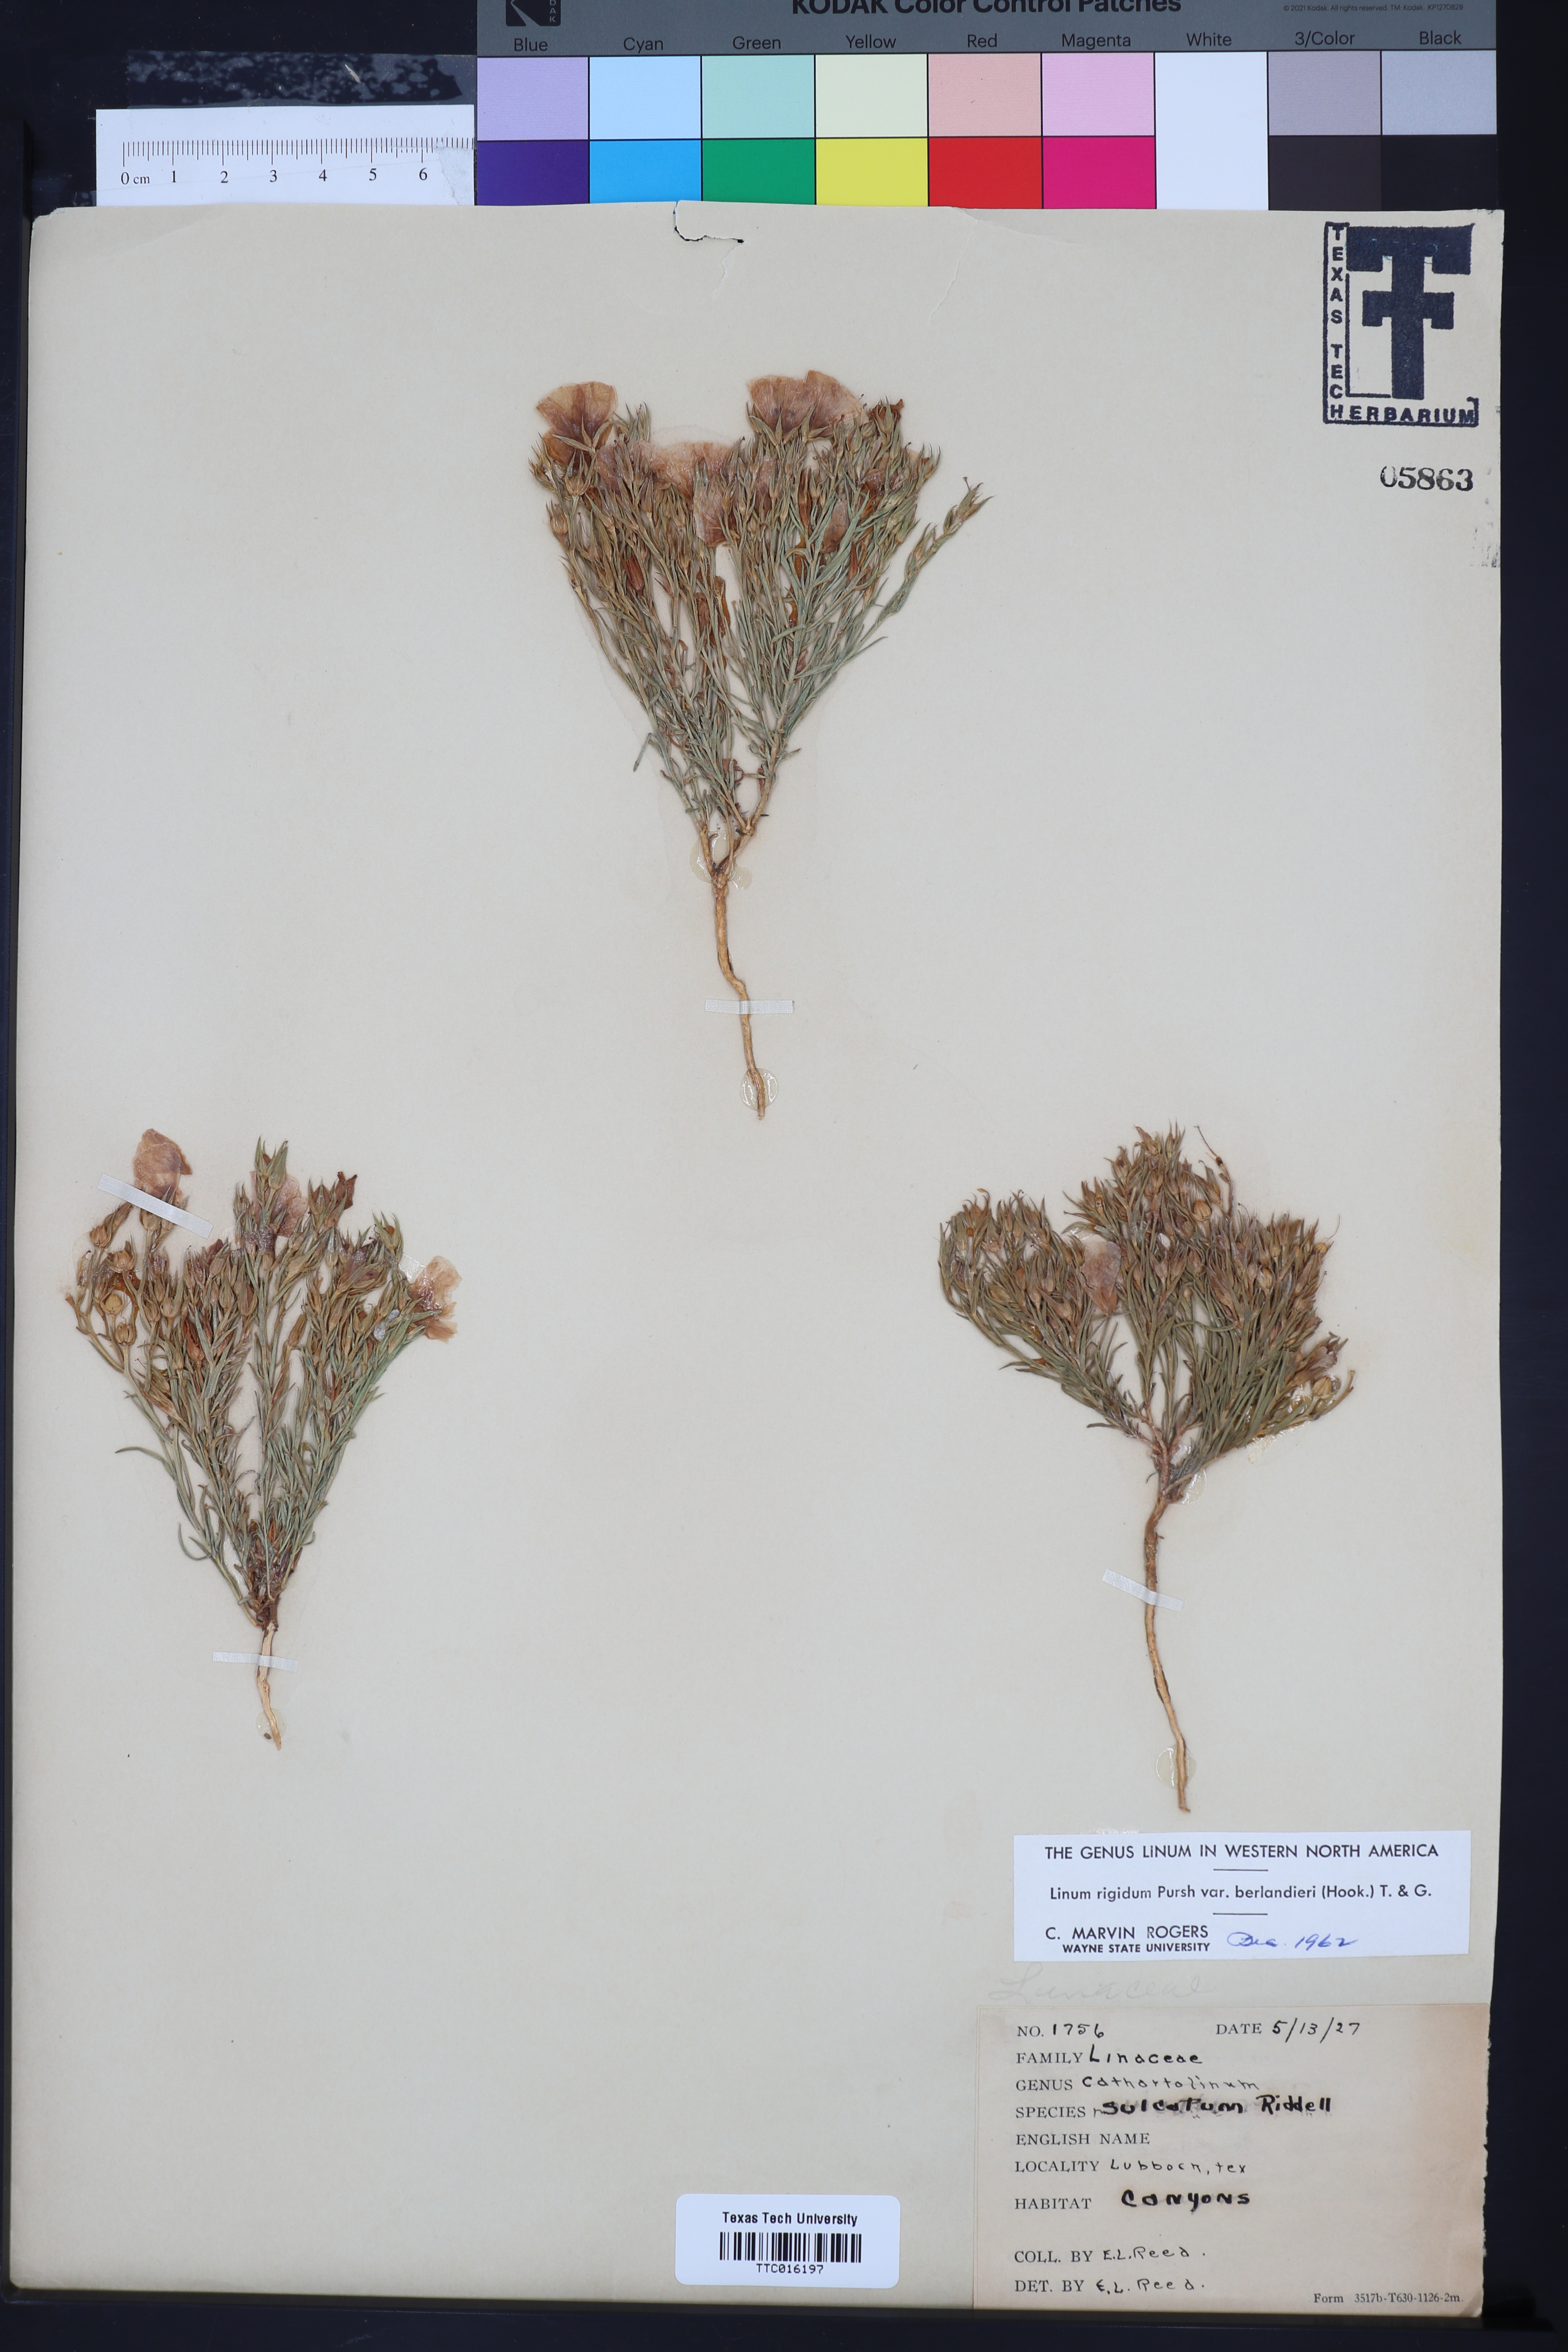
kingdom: Plantae
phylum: Tracheophyta
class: Magnoliopsida
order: Malpighiales
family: Linaceae
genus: Linum
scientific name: Linum berlandieri
